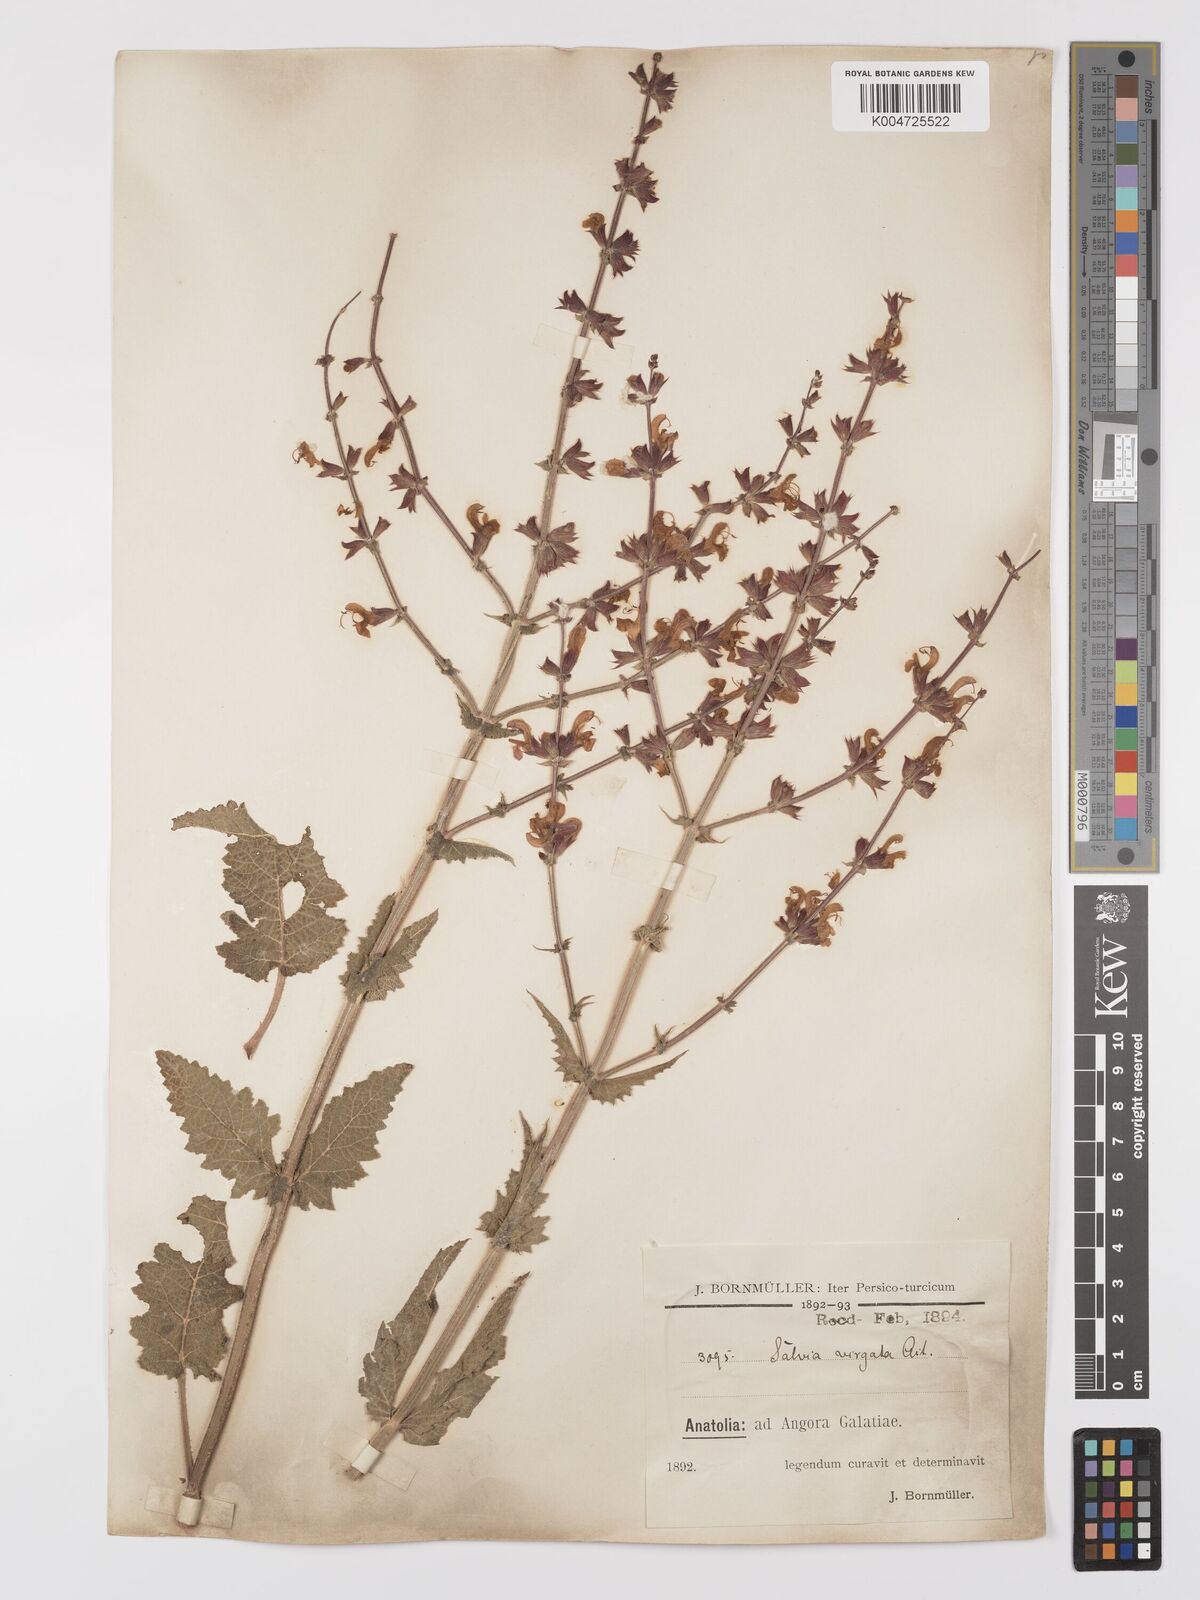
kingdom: Plantae
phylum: Tracheophyta
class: Magnoliopsida
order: Lamiales
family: Lamiaceae
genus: Salvia
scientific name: Salvia
